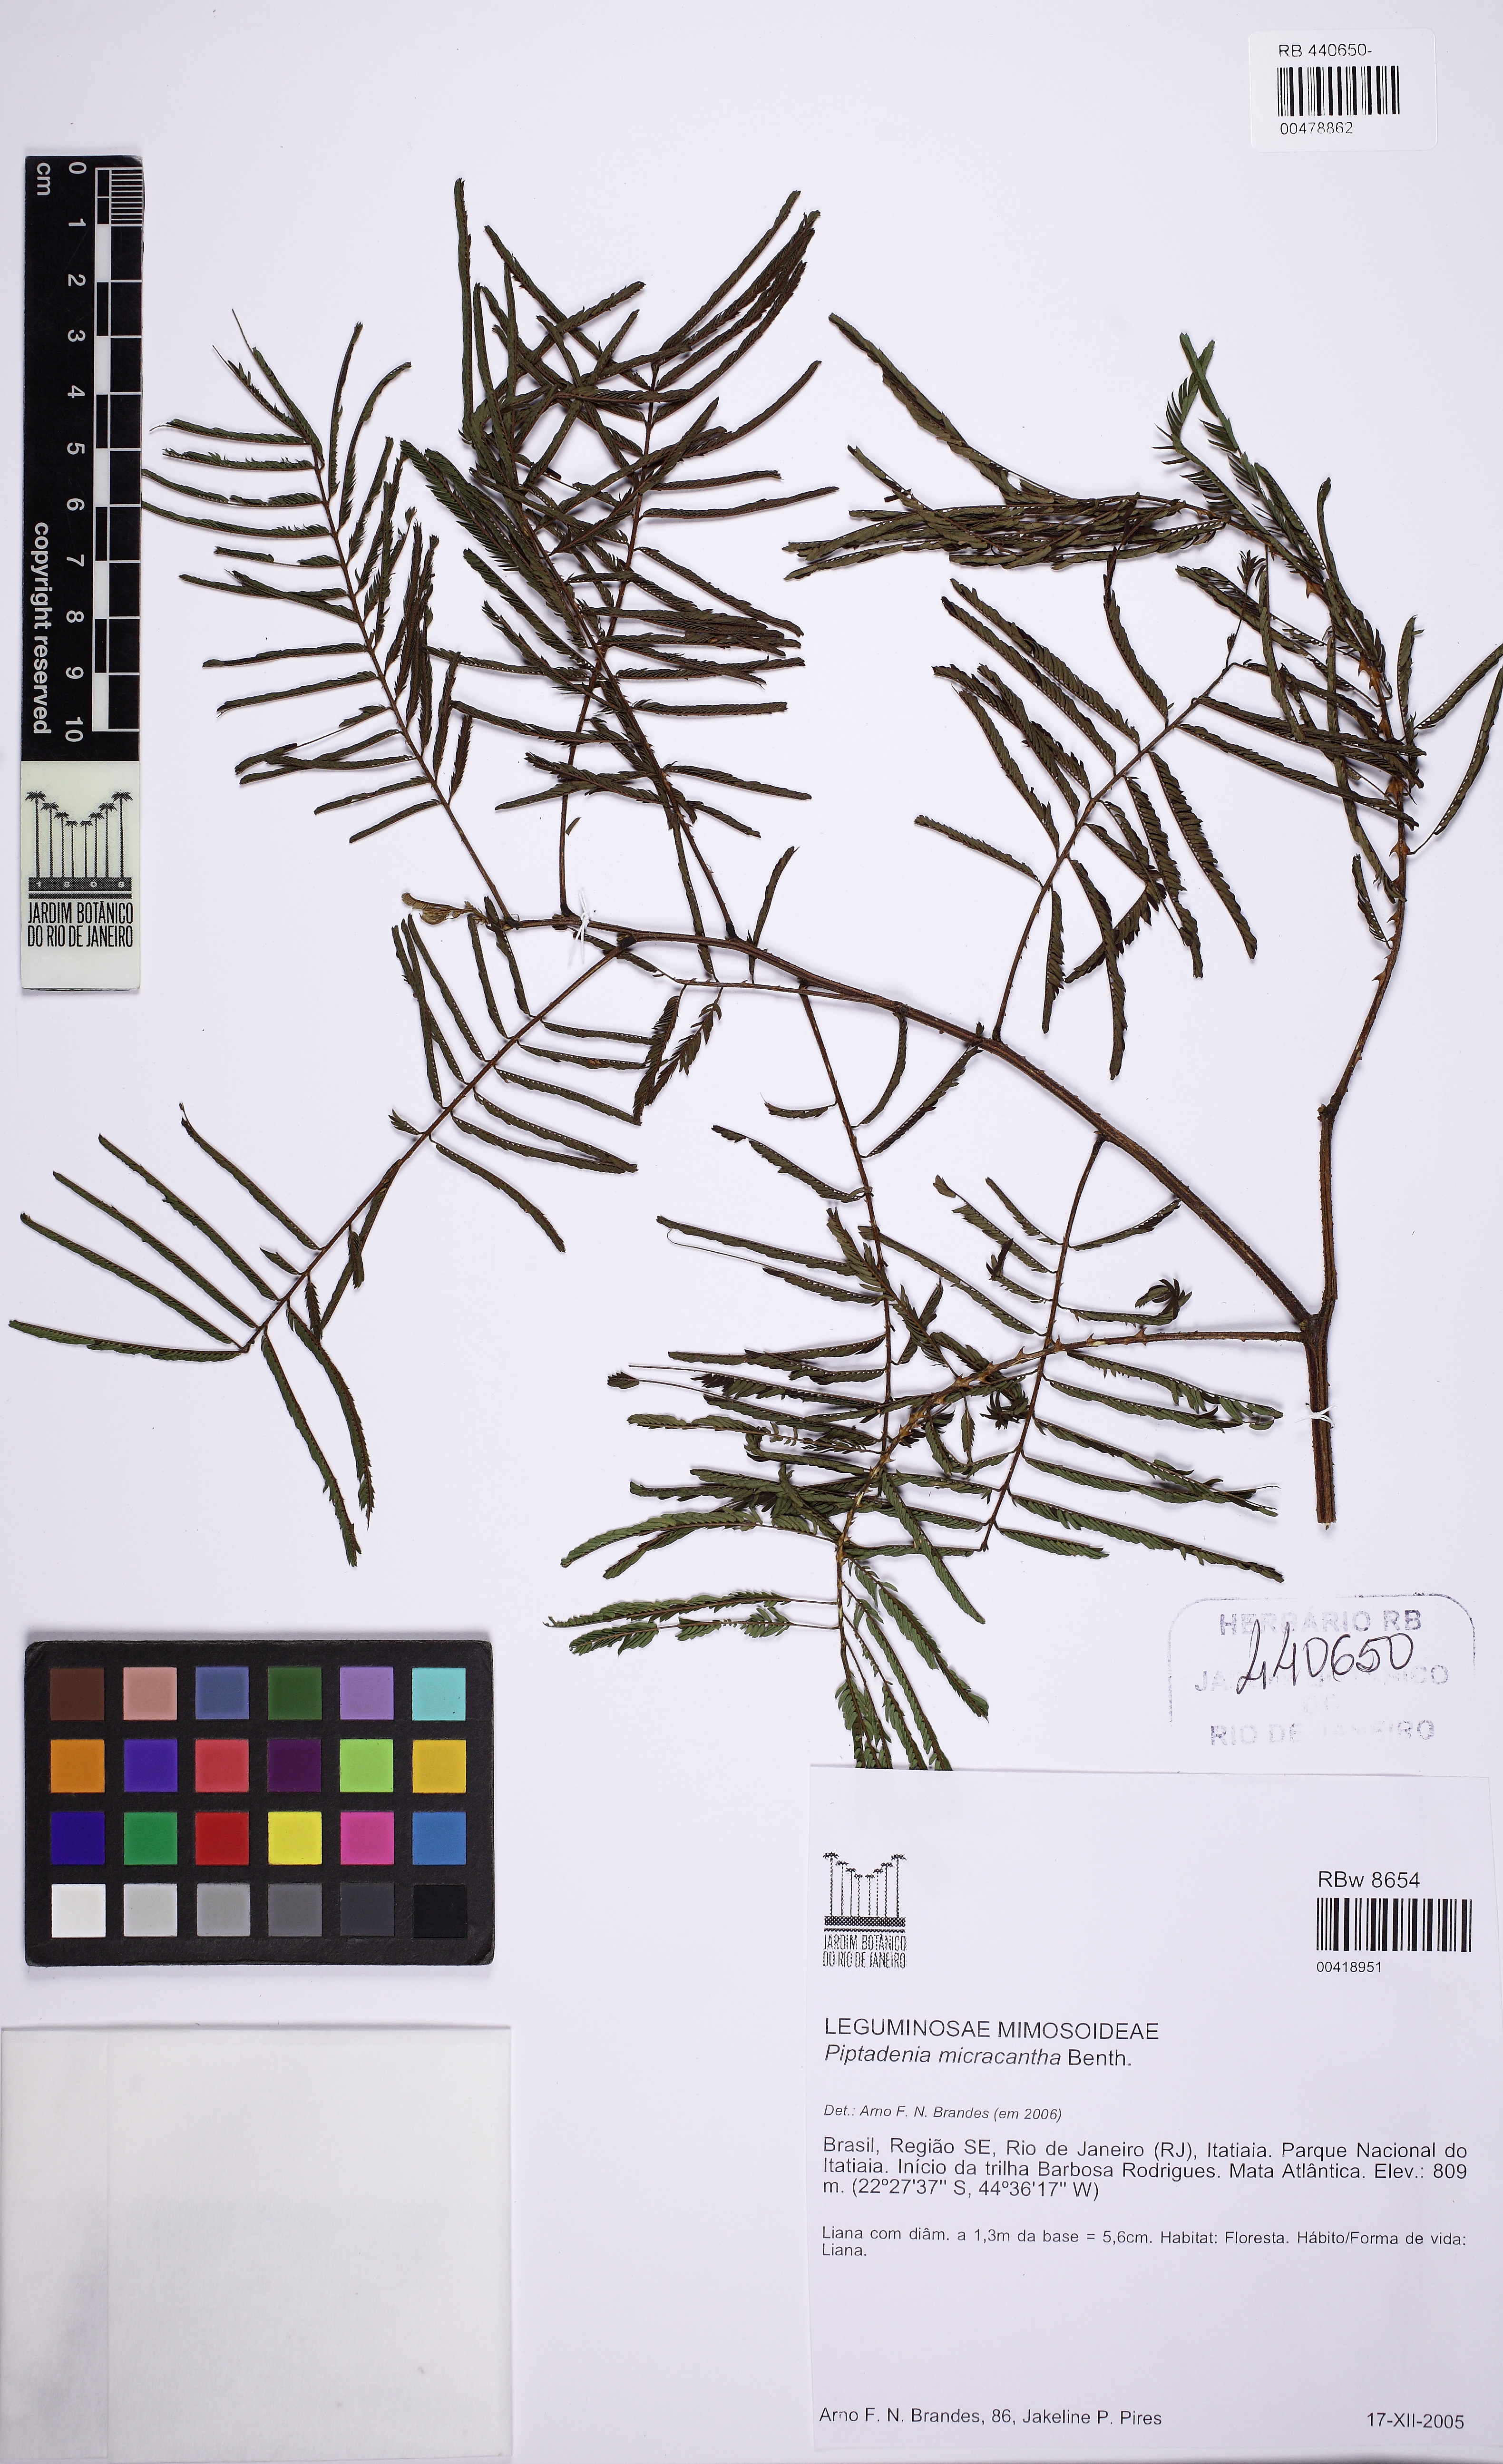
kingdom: Plantae
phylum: Tracheophyta
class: Magnoliopsida
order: Fabales
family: Fabaceae
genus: Piptadenia
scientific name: Piptadenia micracantha
